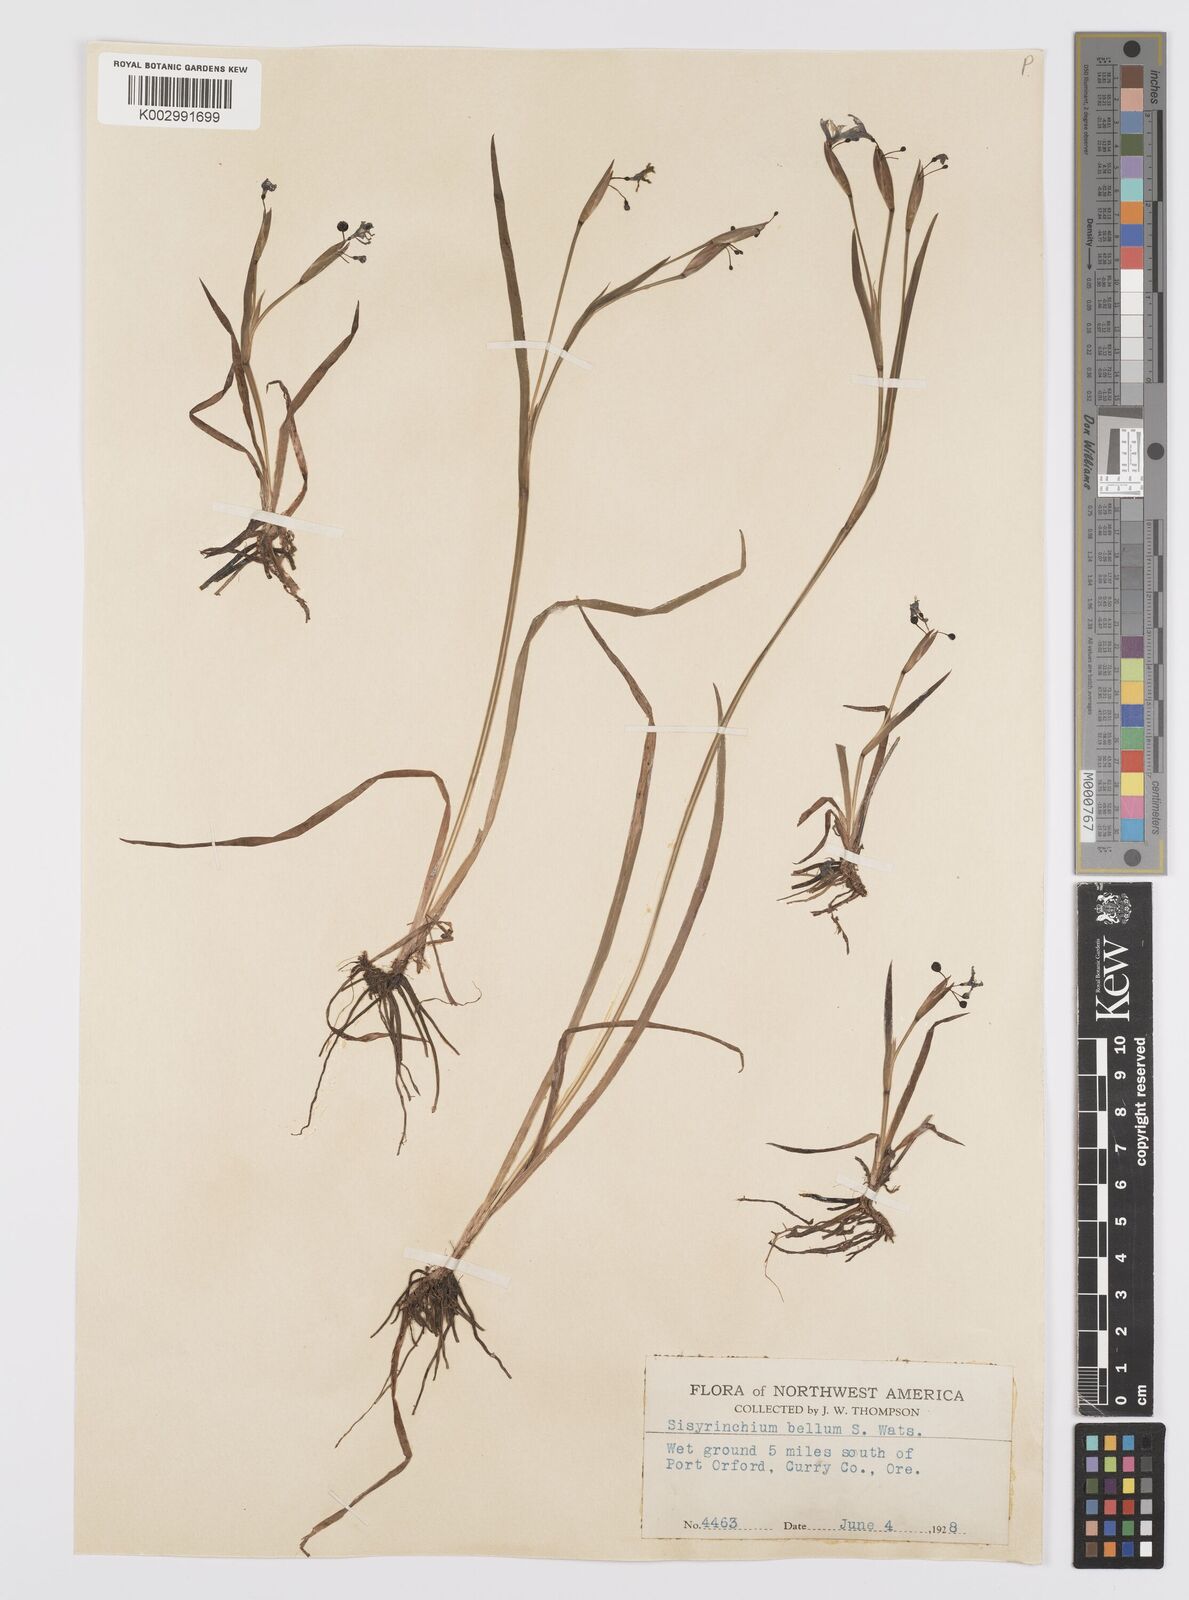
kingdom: Plantae
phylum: Tracheophyta
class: Liliopsida
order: Asparagales
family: Iridaceae
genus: Sisyrinchium
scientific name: Sisyrinchium bellum
